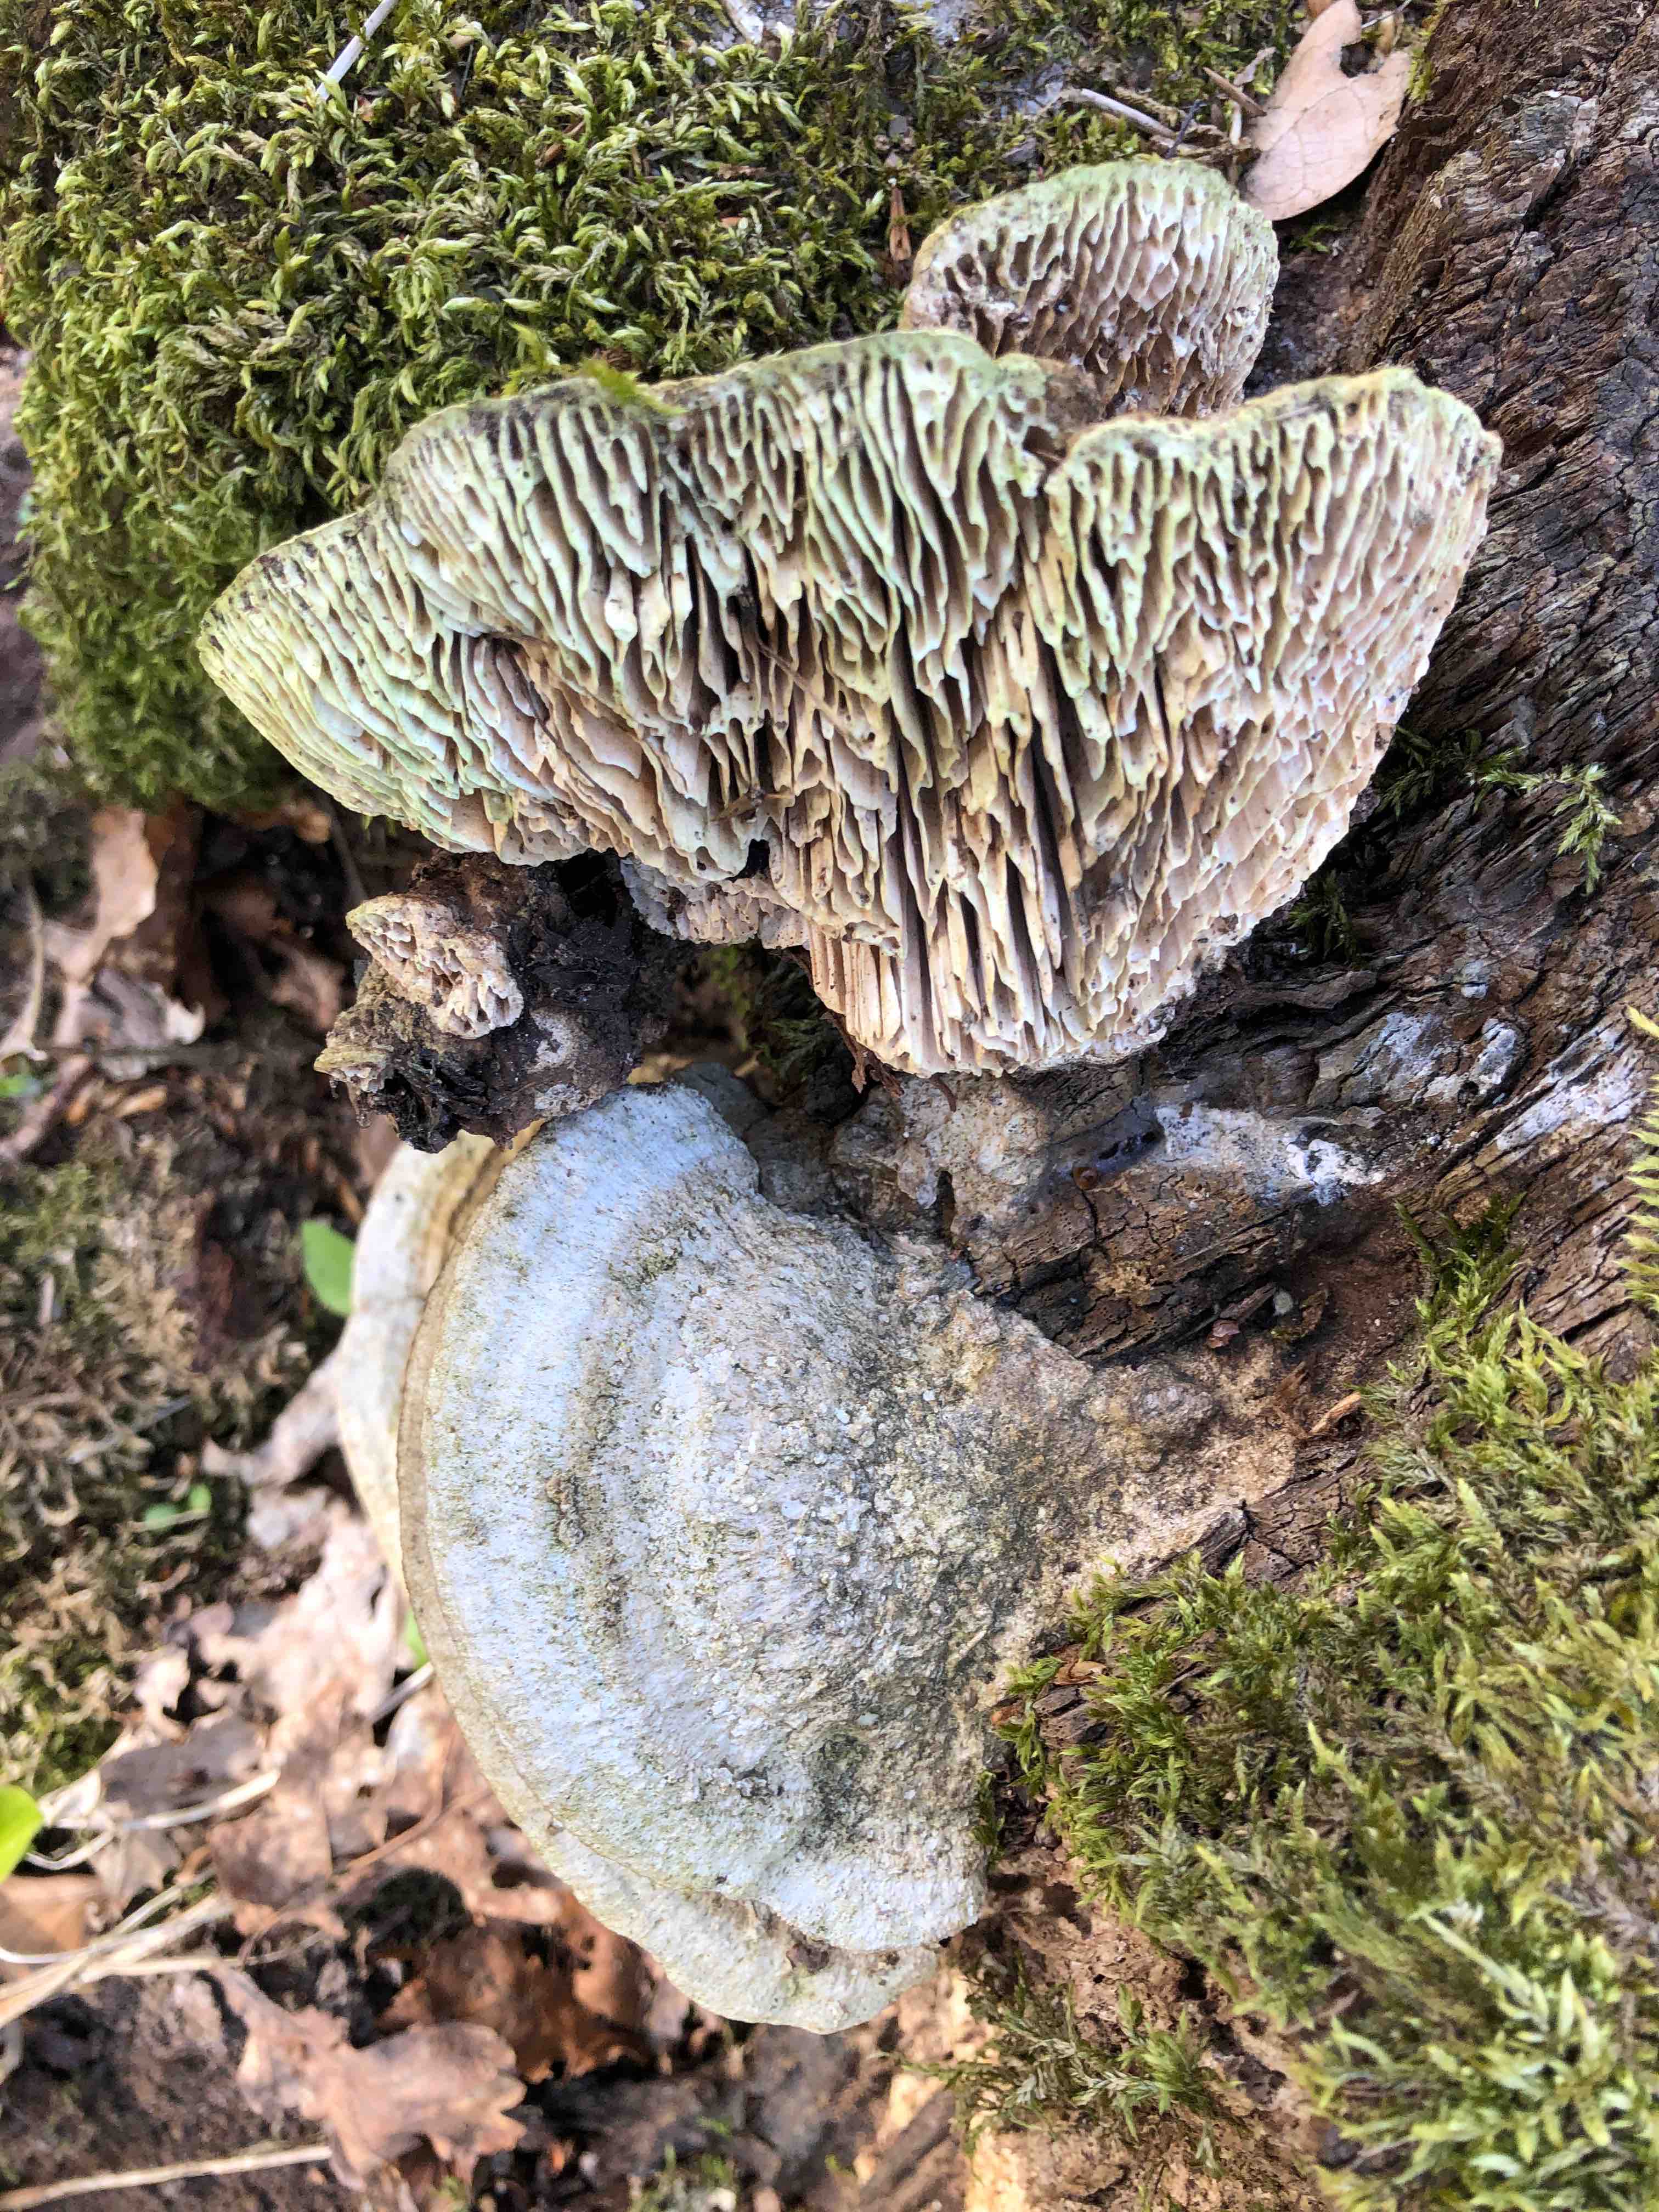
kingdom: Fungi
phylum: Basidiomycota
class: Agaricomycetes
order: Polyporales
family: Fomitopsidaceae
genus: Daedalea
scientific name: Daedalea quercina
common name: ege-labyrintsvamp
